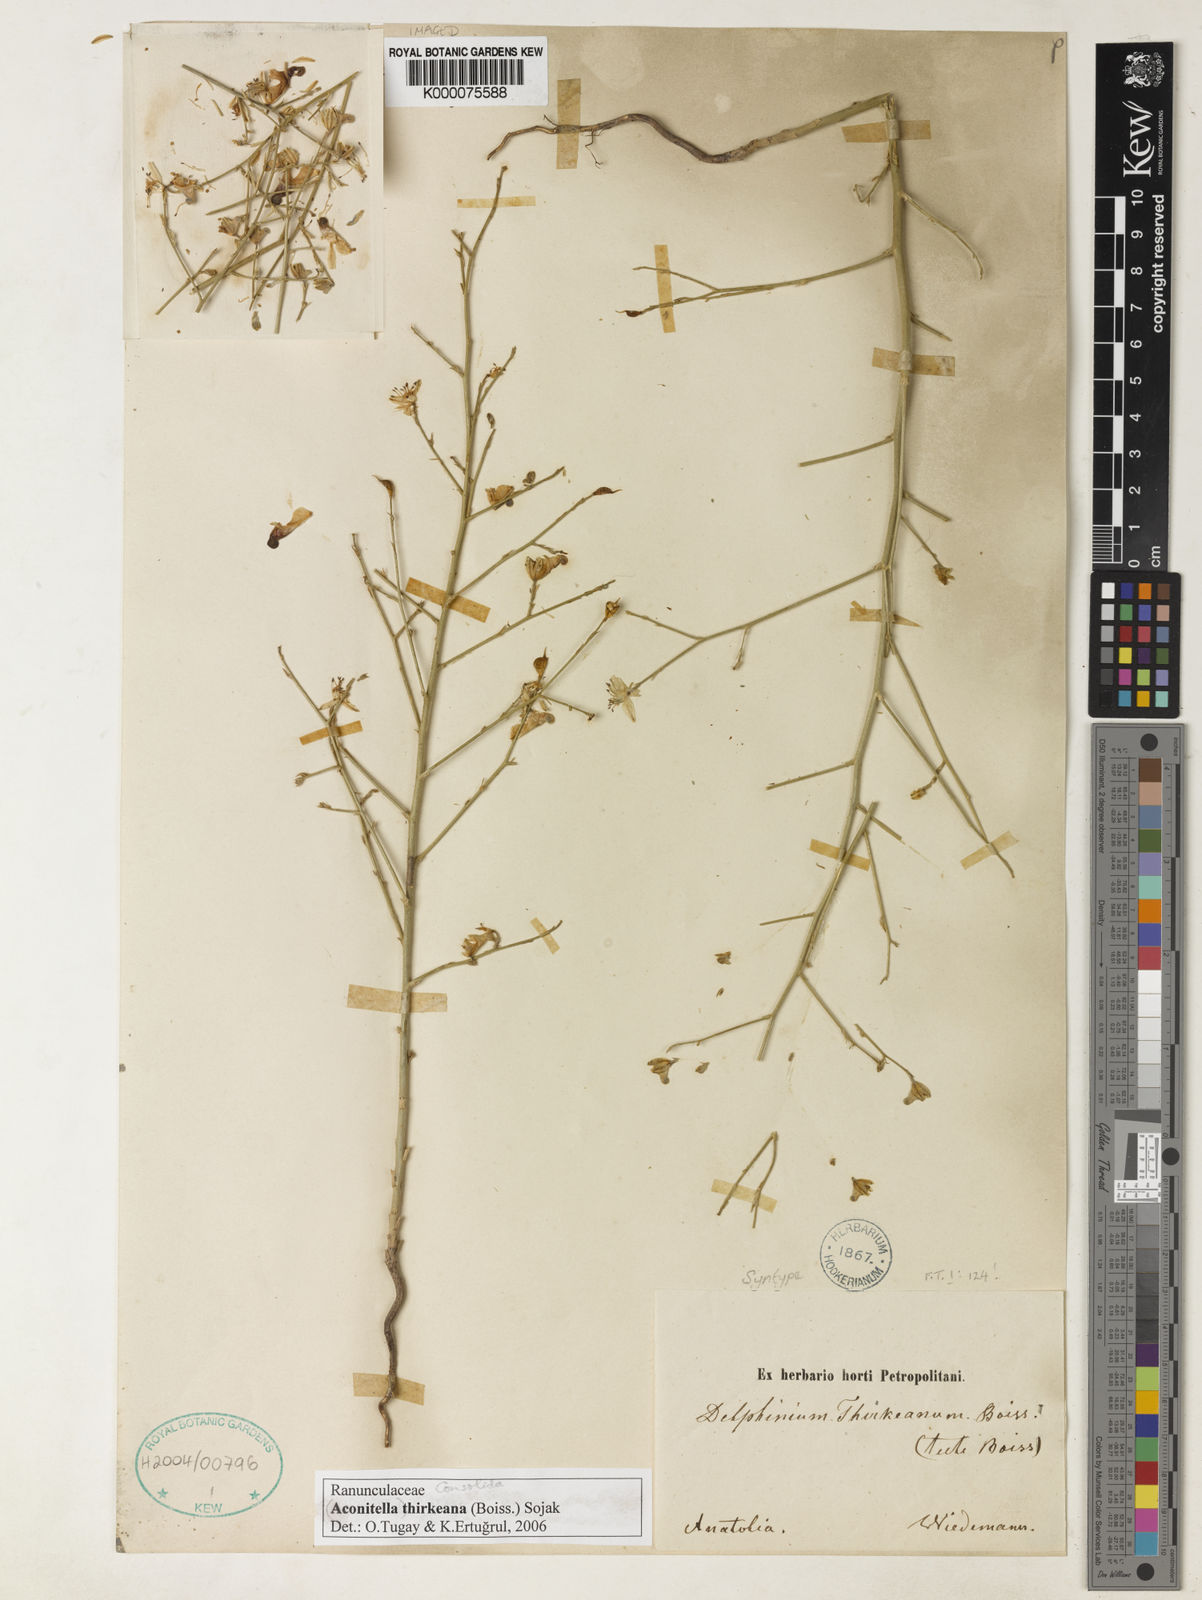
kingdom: Plantae
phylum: Tracheophyta
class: Magnoliopsida
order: Ranunculales
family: Ranunculaceae
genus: Delphinium
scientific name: Delphinium
